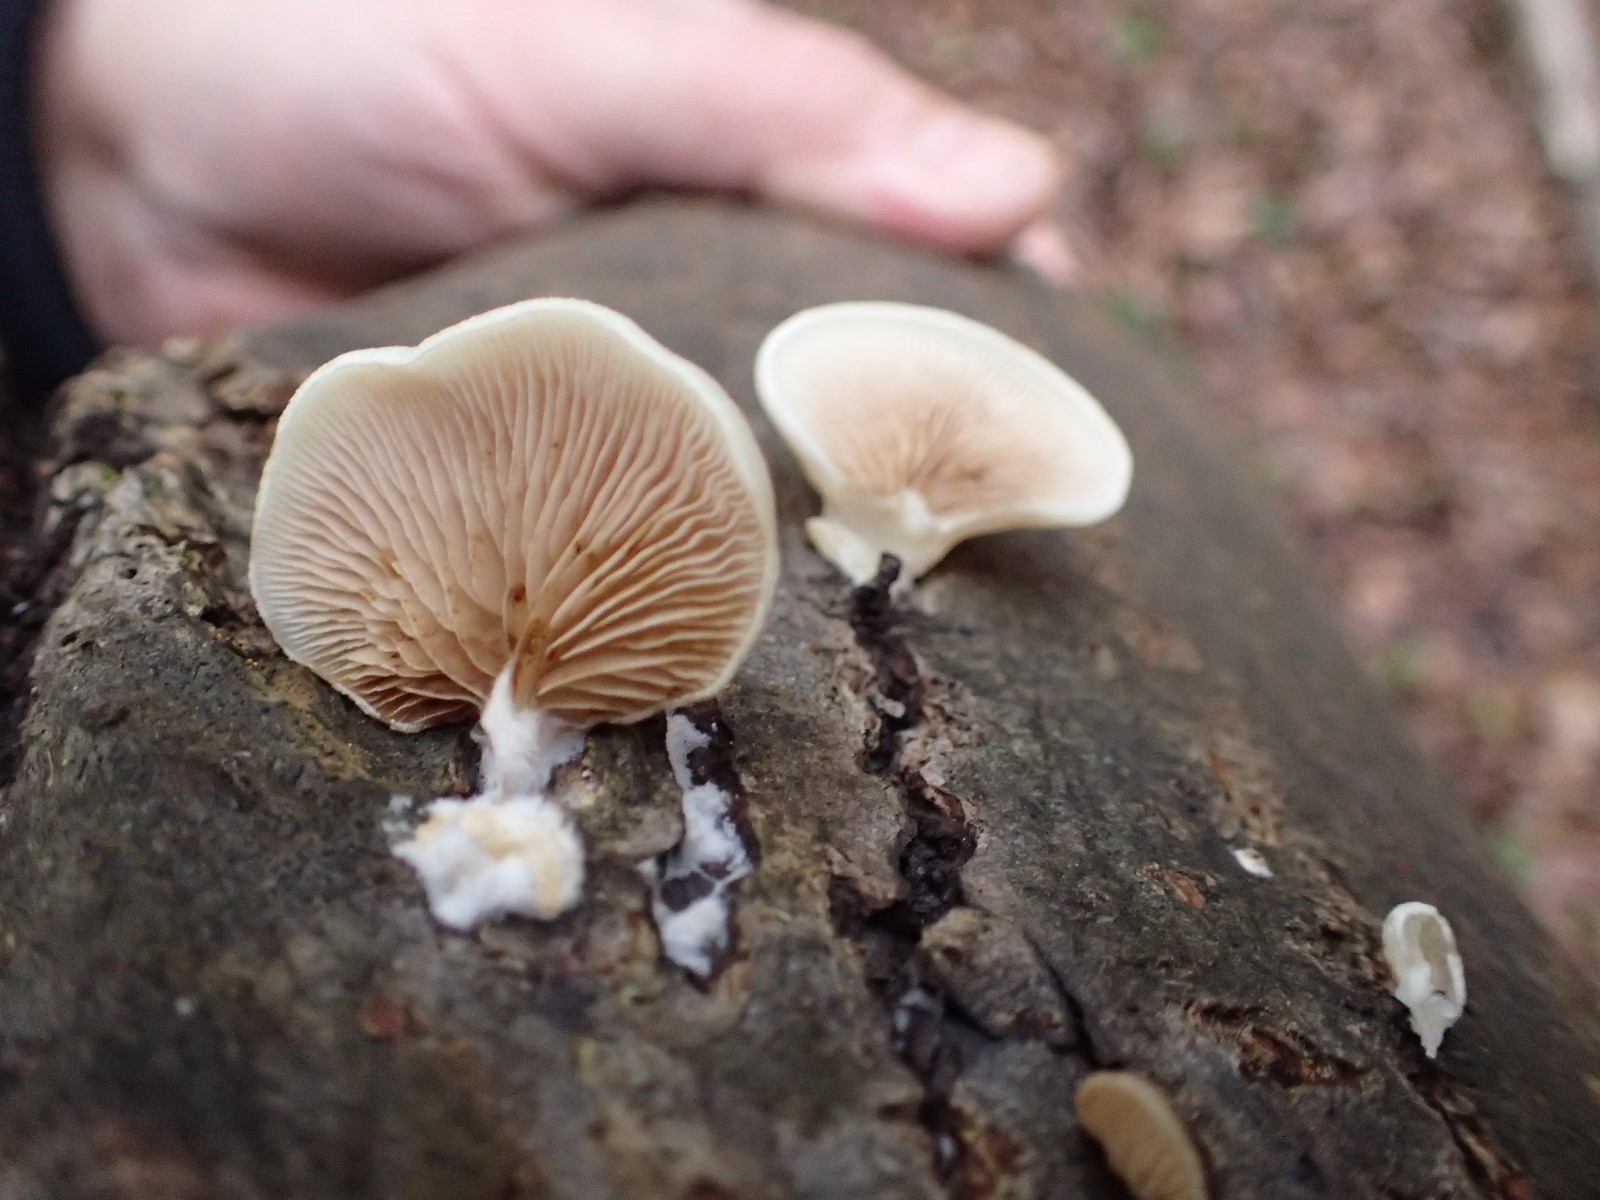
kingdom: Fungi
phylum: Basidiomycota
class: Agaricomycetes
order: Agaricales
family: Crepidotaceae
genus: Crepidotus
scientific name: Crepidotus
